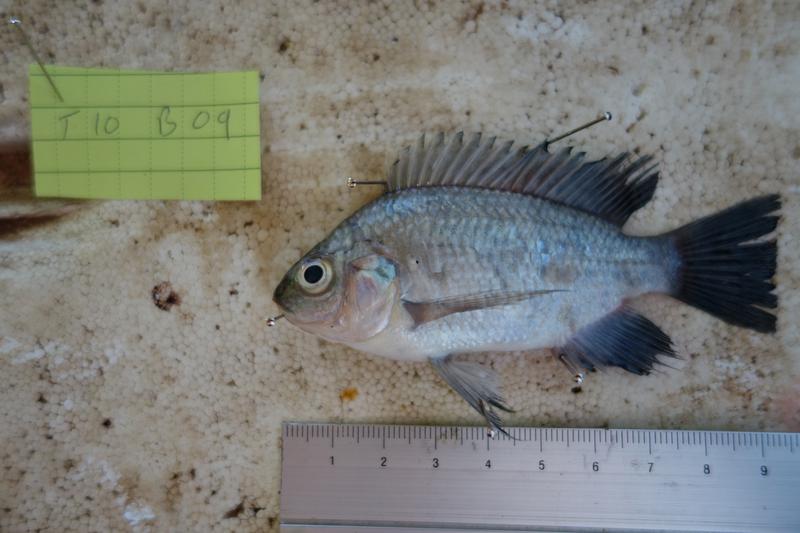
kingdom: Animalia
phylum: Chordata
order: Perciformes
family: Cichlidae
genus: Oreochromis
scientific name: Oreochromis rukwaensis
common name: Lake rukwa tilapia
